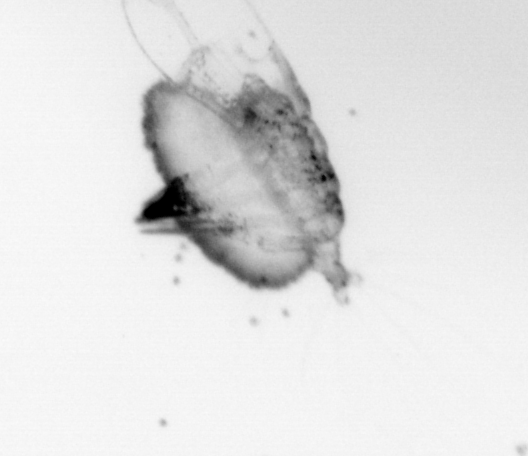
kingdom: Animalia
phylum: Annelida
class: Polychaeta
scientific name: Polychaeta
